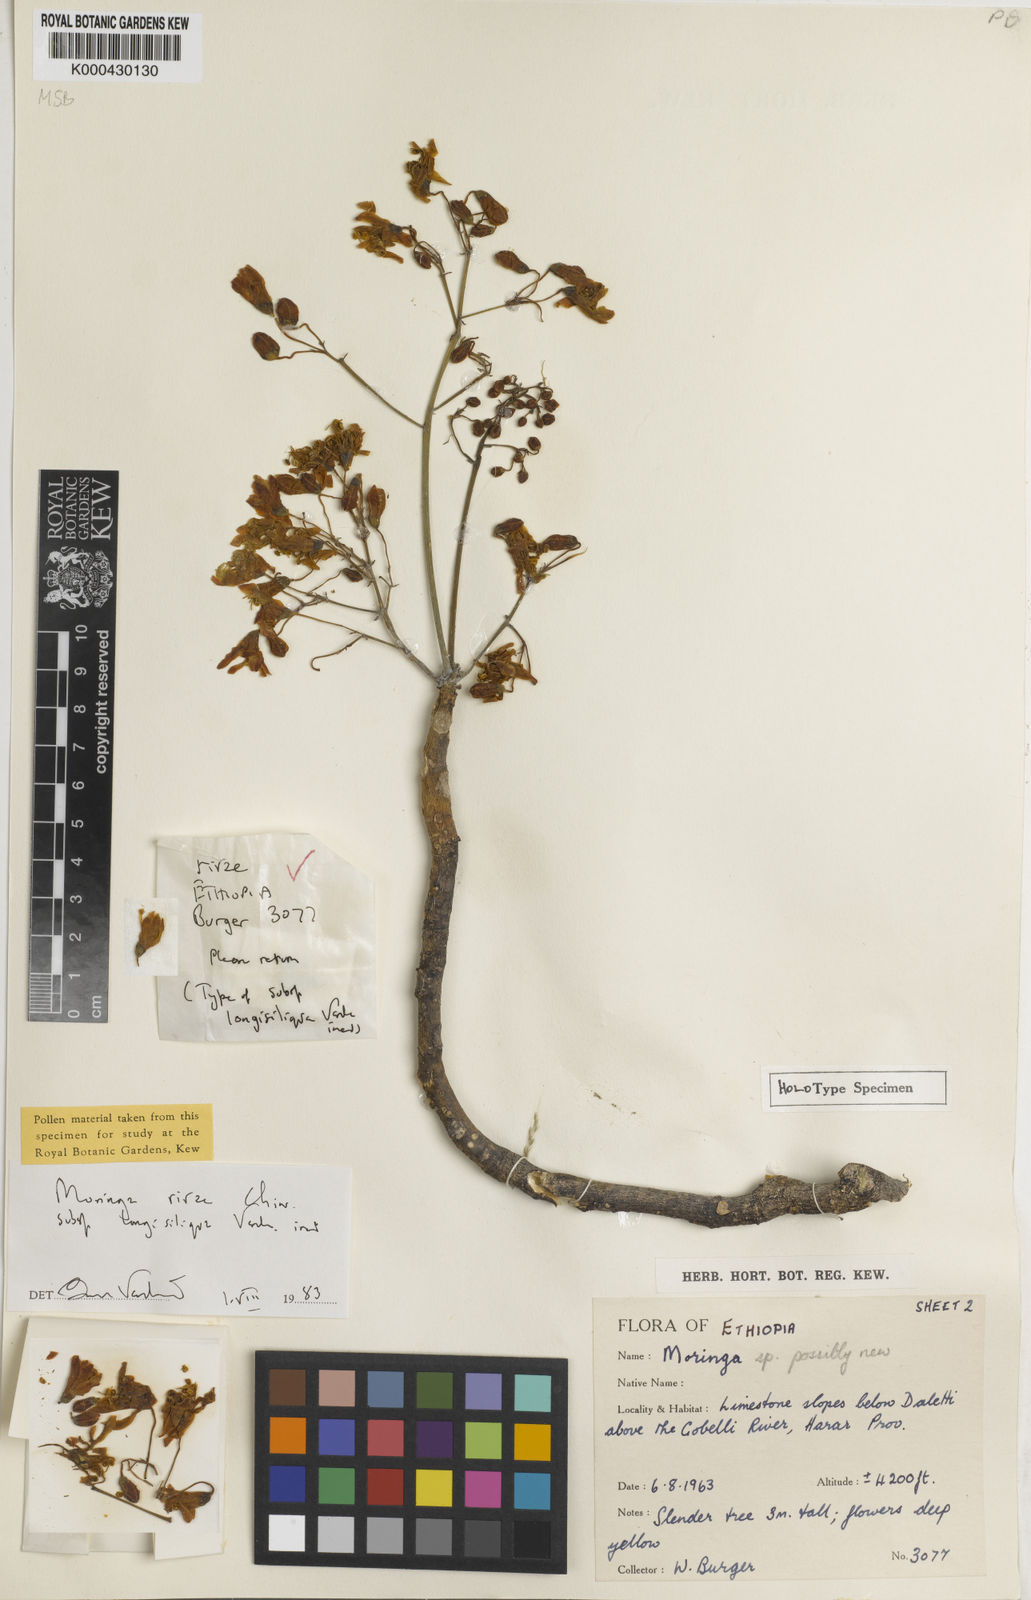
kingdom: Plantae
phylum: Tracheophyta
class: Magnoliopsida
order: Brassicales
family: Moringaceae
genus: Moringa
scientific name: Moringa rivae
